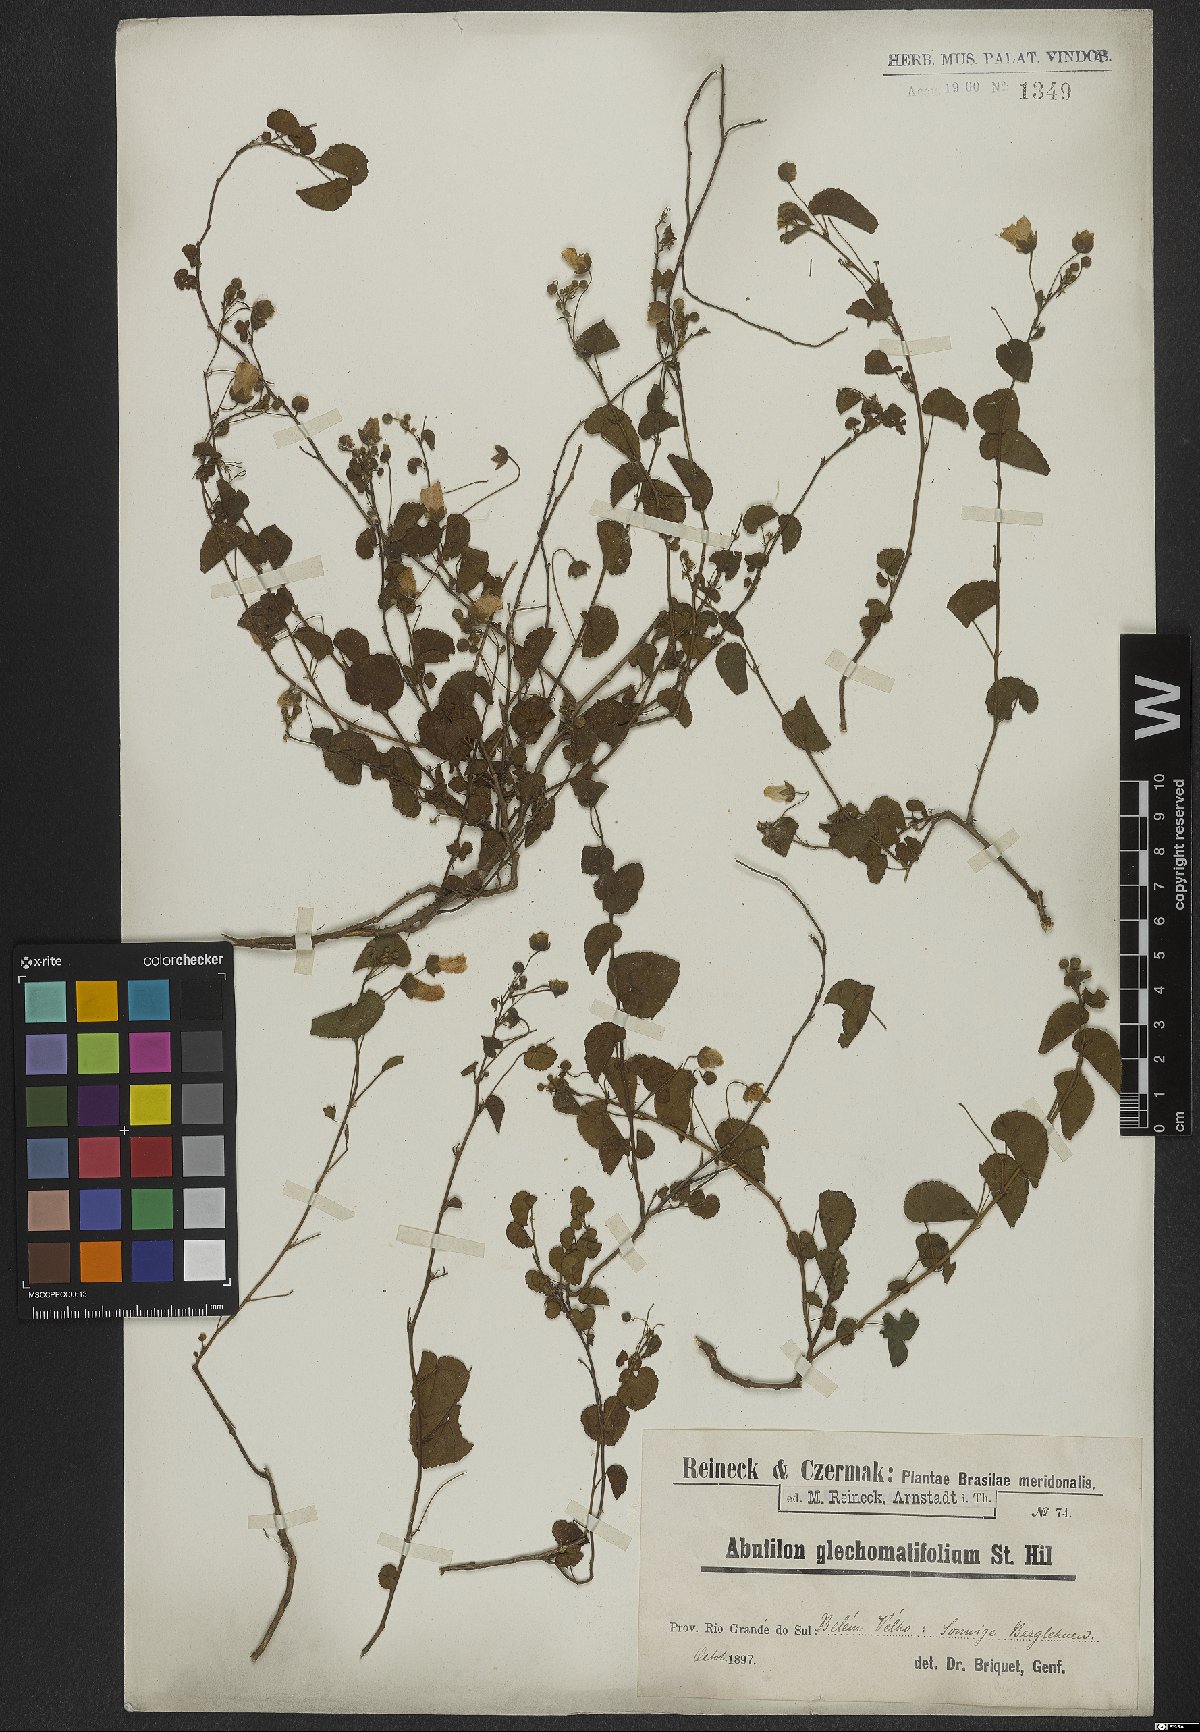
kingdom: Plantae
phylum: Tracheophyta
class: Magnoliopsida
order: Malvales
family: Malvaceae
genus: Wissadula
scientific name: Wissadula glechomifolia
